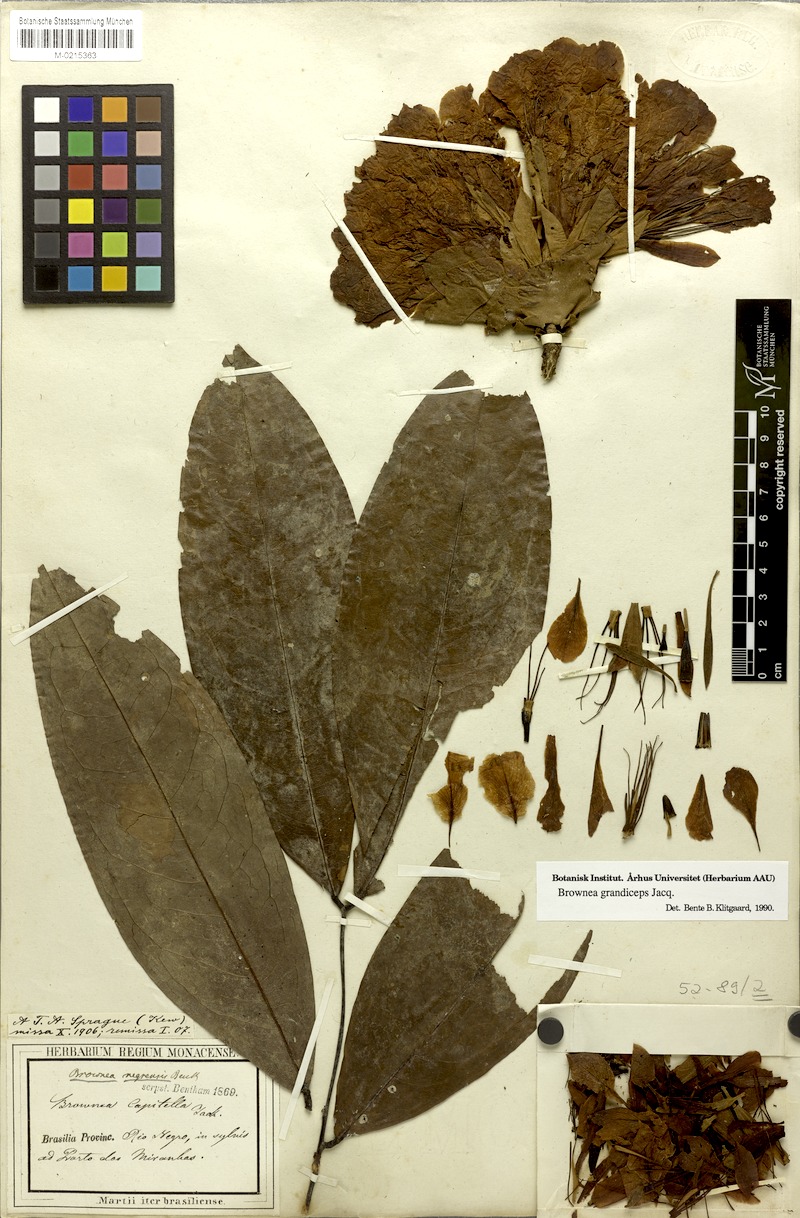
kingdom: Plantae
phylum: Tracheophyta
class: Magnoliopsida
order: Fabales
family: Fabaceae
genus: Brownea
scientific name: Brownea grandiceps
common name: Rose-of-venezuela
